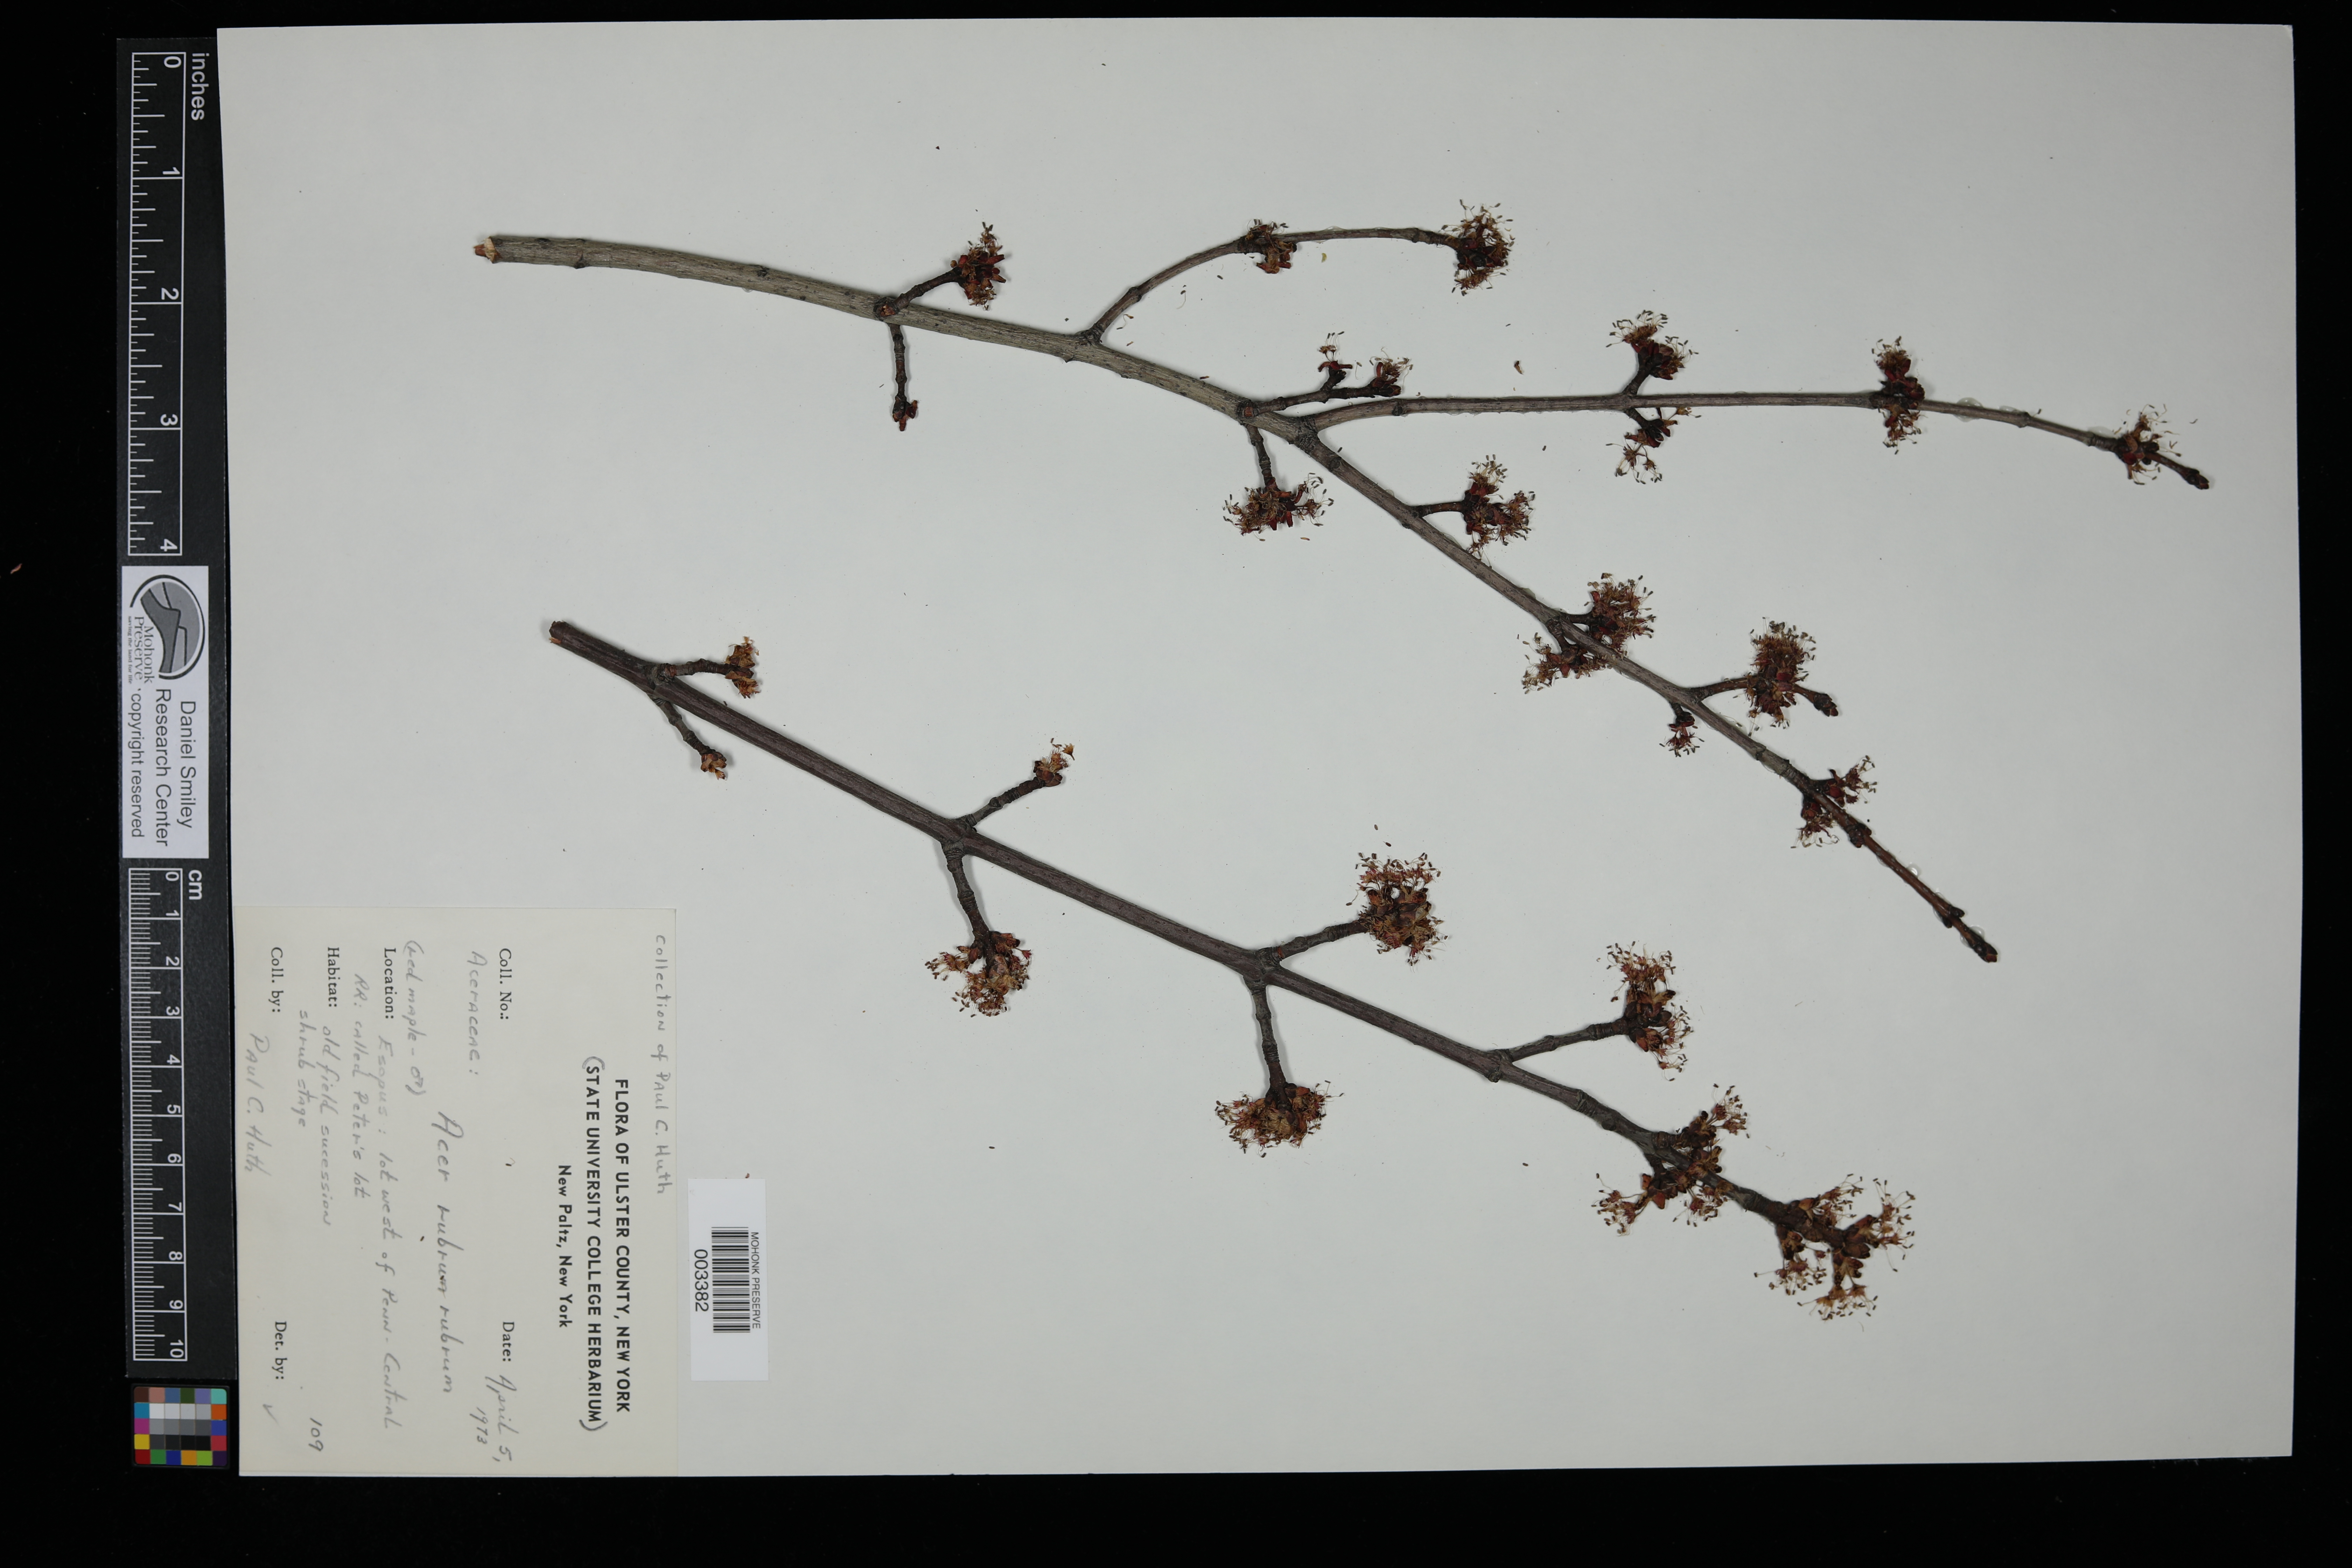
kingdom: Plantae
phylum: Tracheophyta
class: Magnoliopsida
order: Sapindales
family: Sapindaceae
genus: Acer
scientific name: Acer rubrum
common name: Red maple
